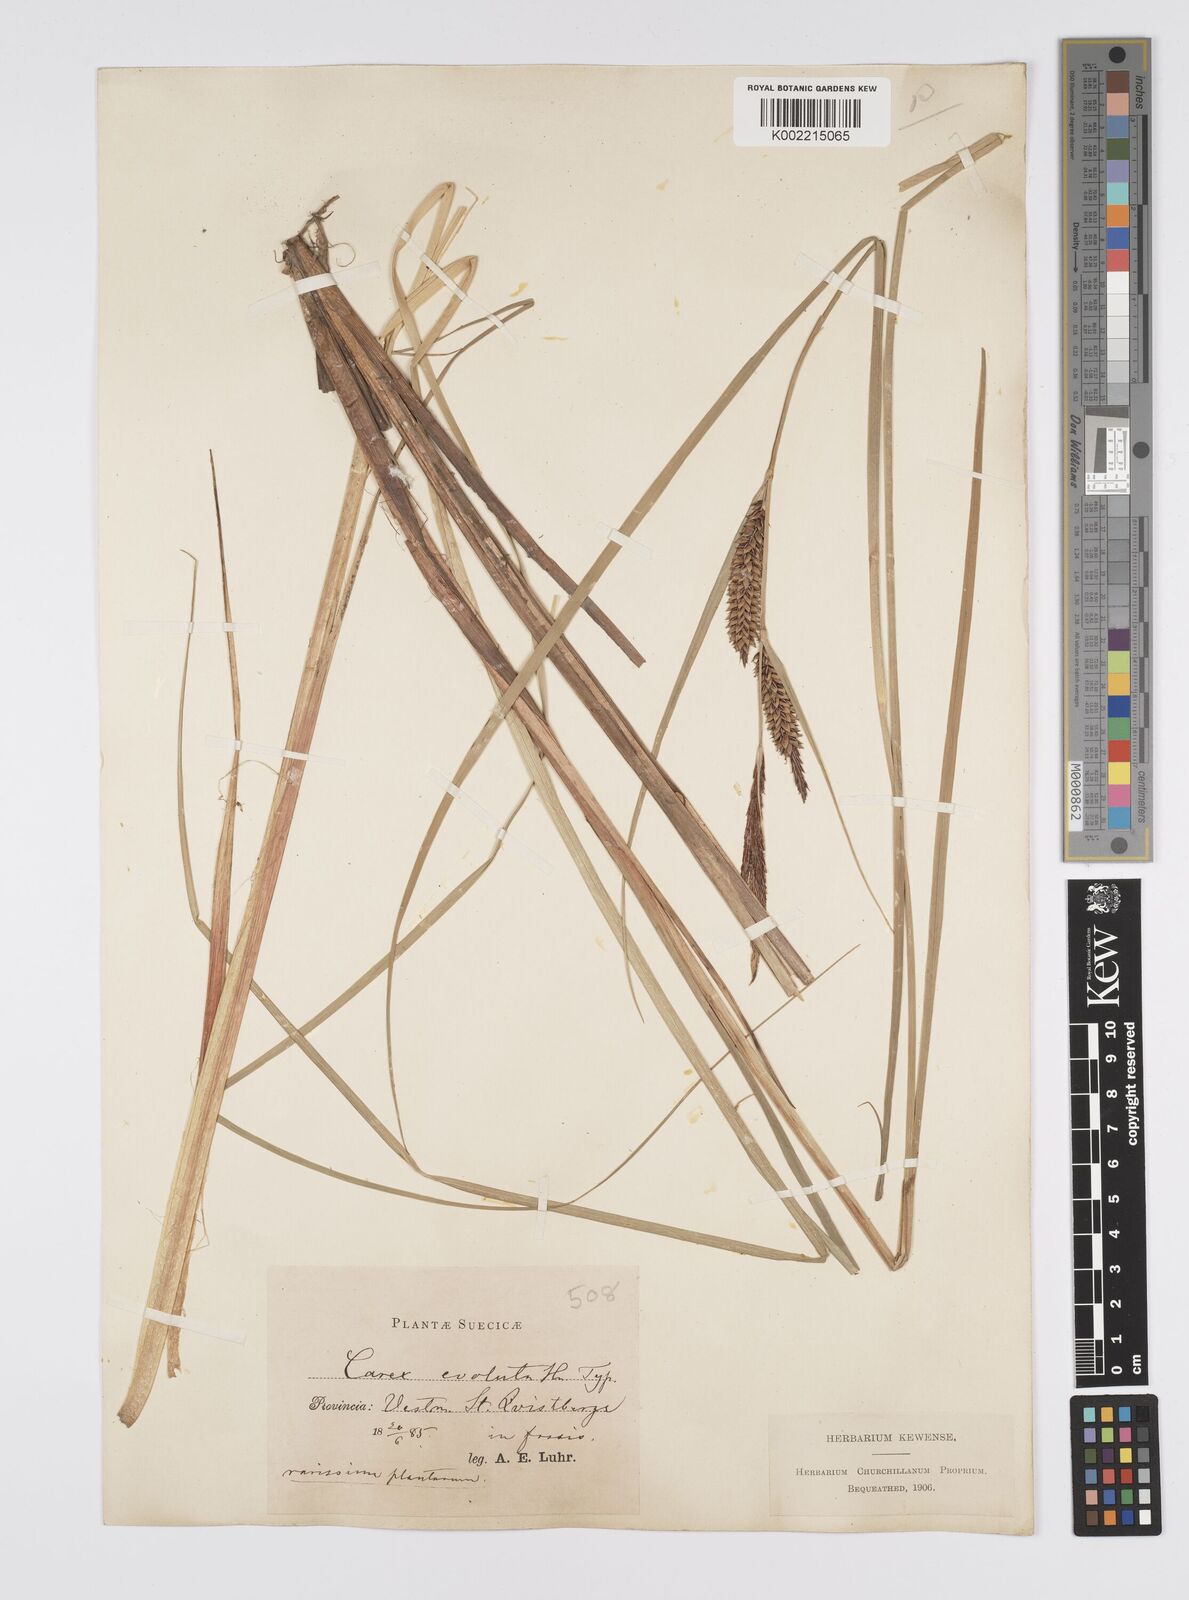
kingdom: Plantae
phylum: Tracheophyta
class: Liliopsida
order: Poales
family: Cyperaceae
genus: Carex
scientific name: Carex evoluta
